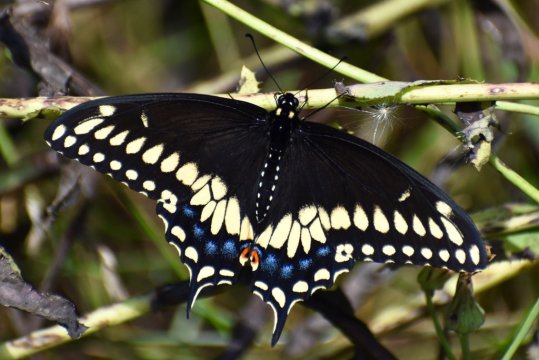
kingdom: Animalia
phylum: Arthropoda
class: Insecta
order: Lepidoptera
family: Papilionidae
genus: Papilio
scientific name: Papilio polyxenes
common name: Black Swallowtail
